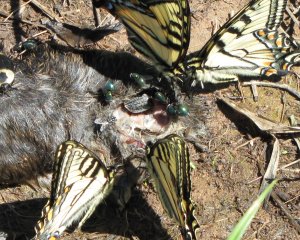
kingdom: Animalia
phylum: Arthropoda
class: Insecta
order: Lepidoptera
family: Papilionidae
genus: Pterourus
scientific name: Pterourus canadensis
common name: Canadian Tiger Swallowtail
